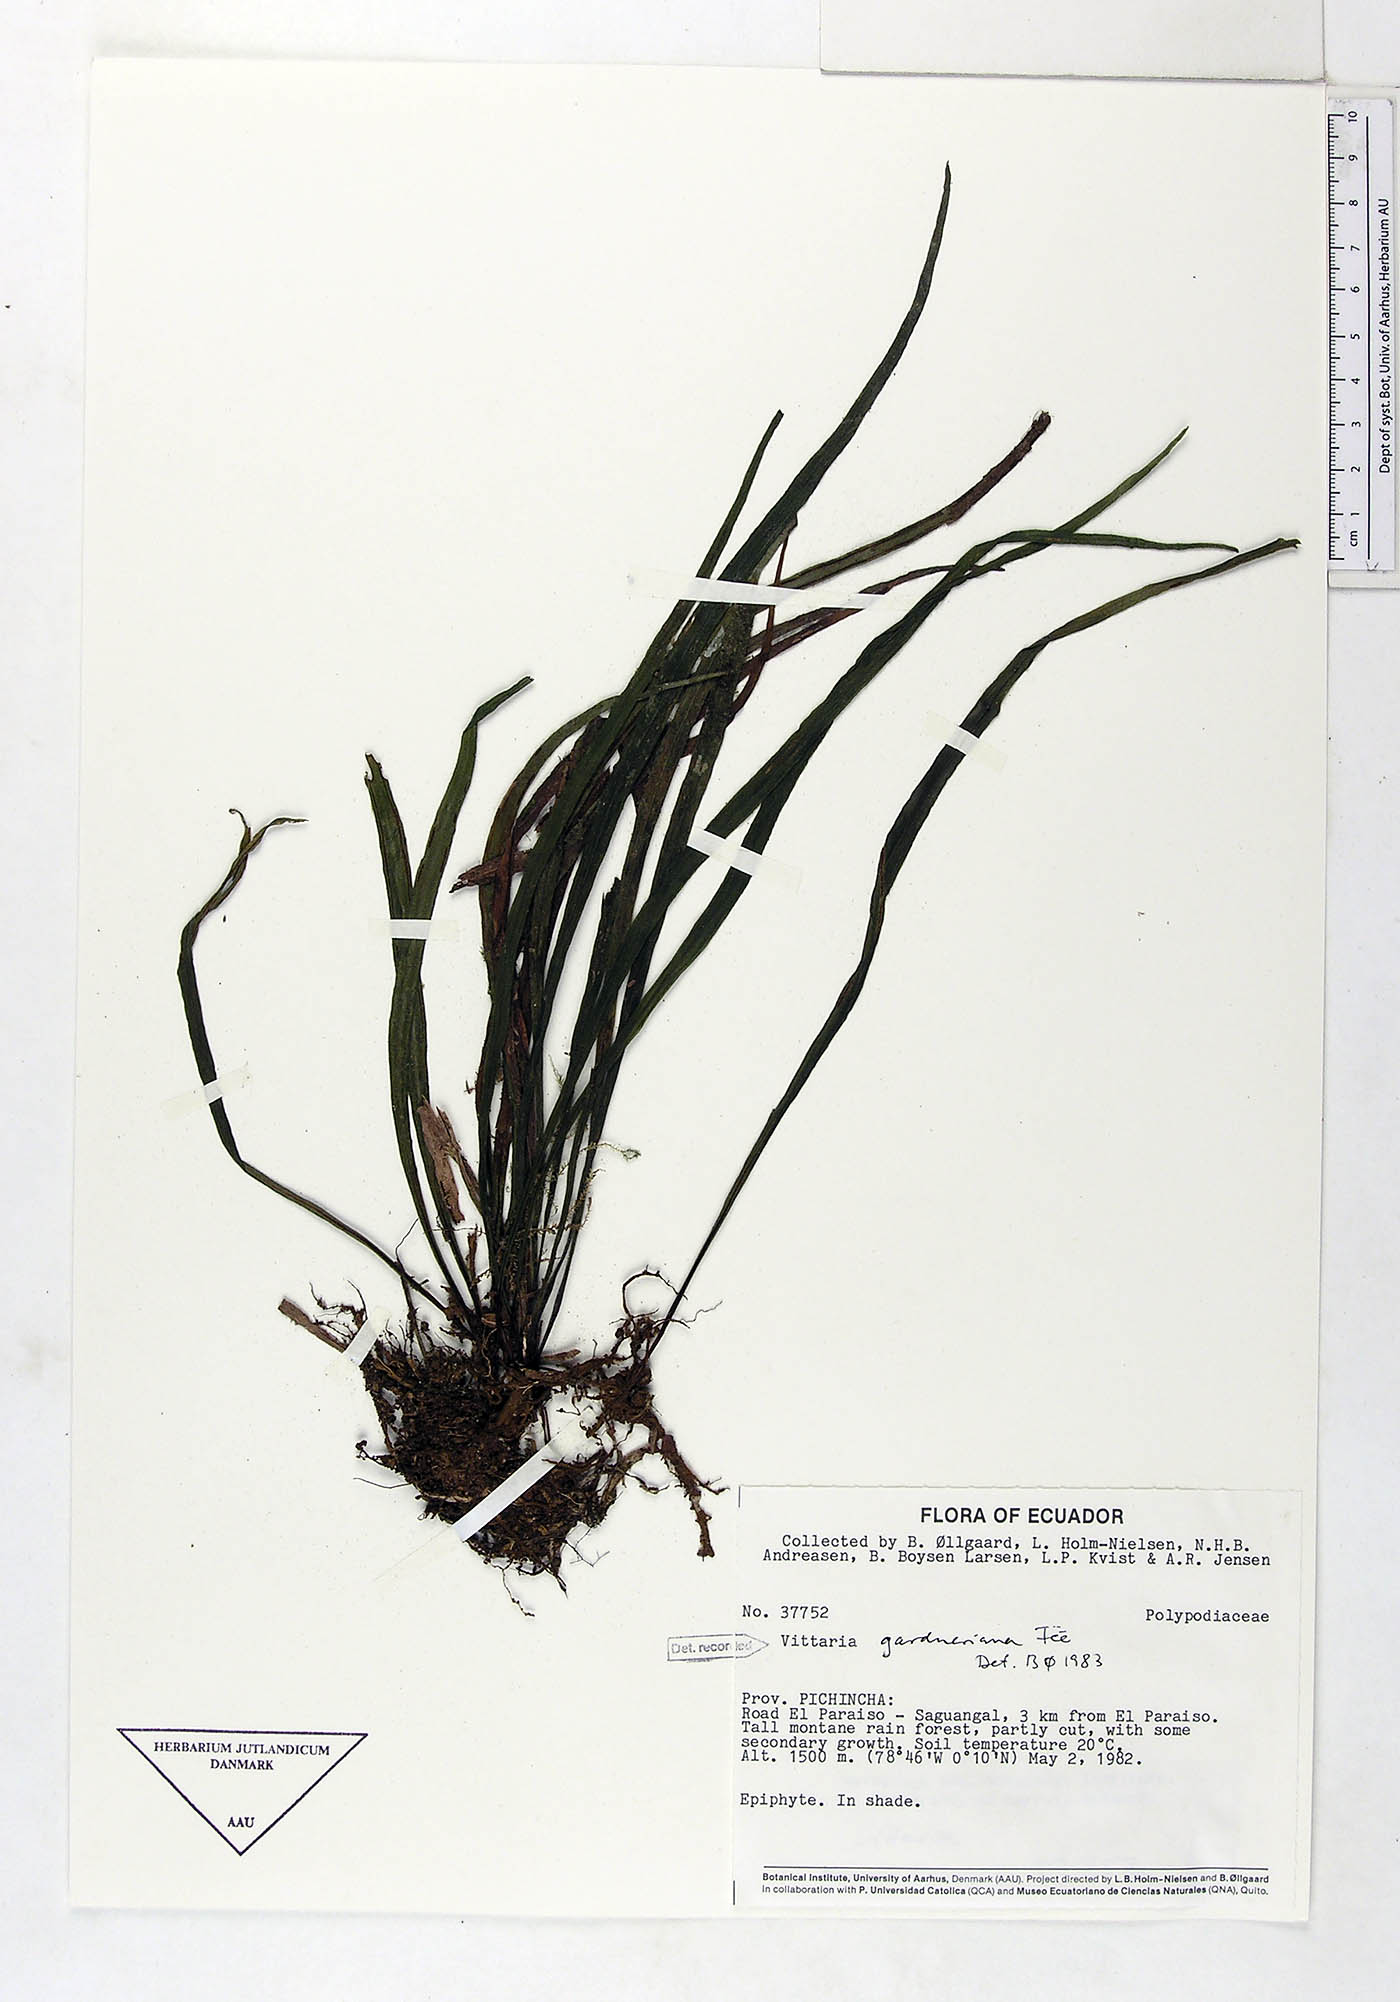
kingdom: Plantae
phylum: Tracheophyta
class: Polypodiopsida
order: Polypodiales
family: Pteridaceae
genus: Radiovittaria
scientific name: Radiovittaria gardneriana
